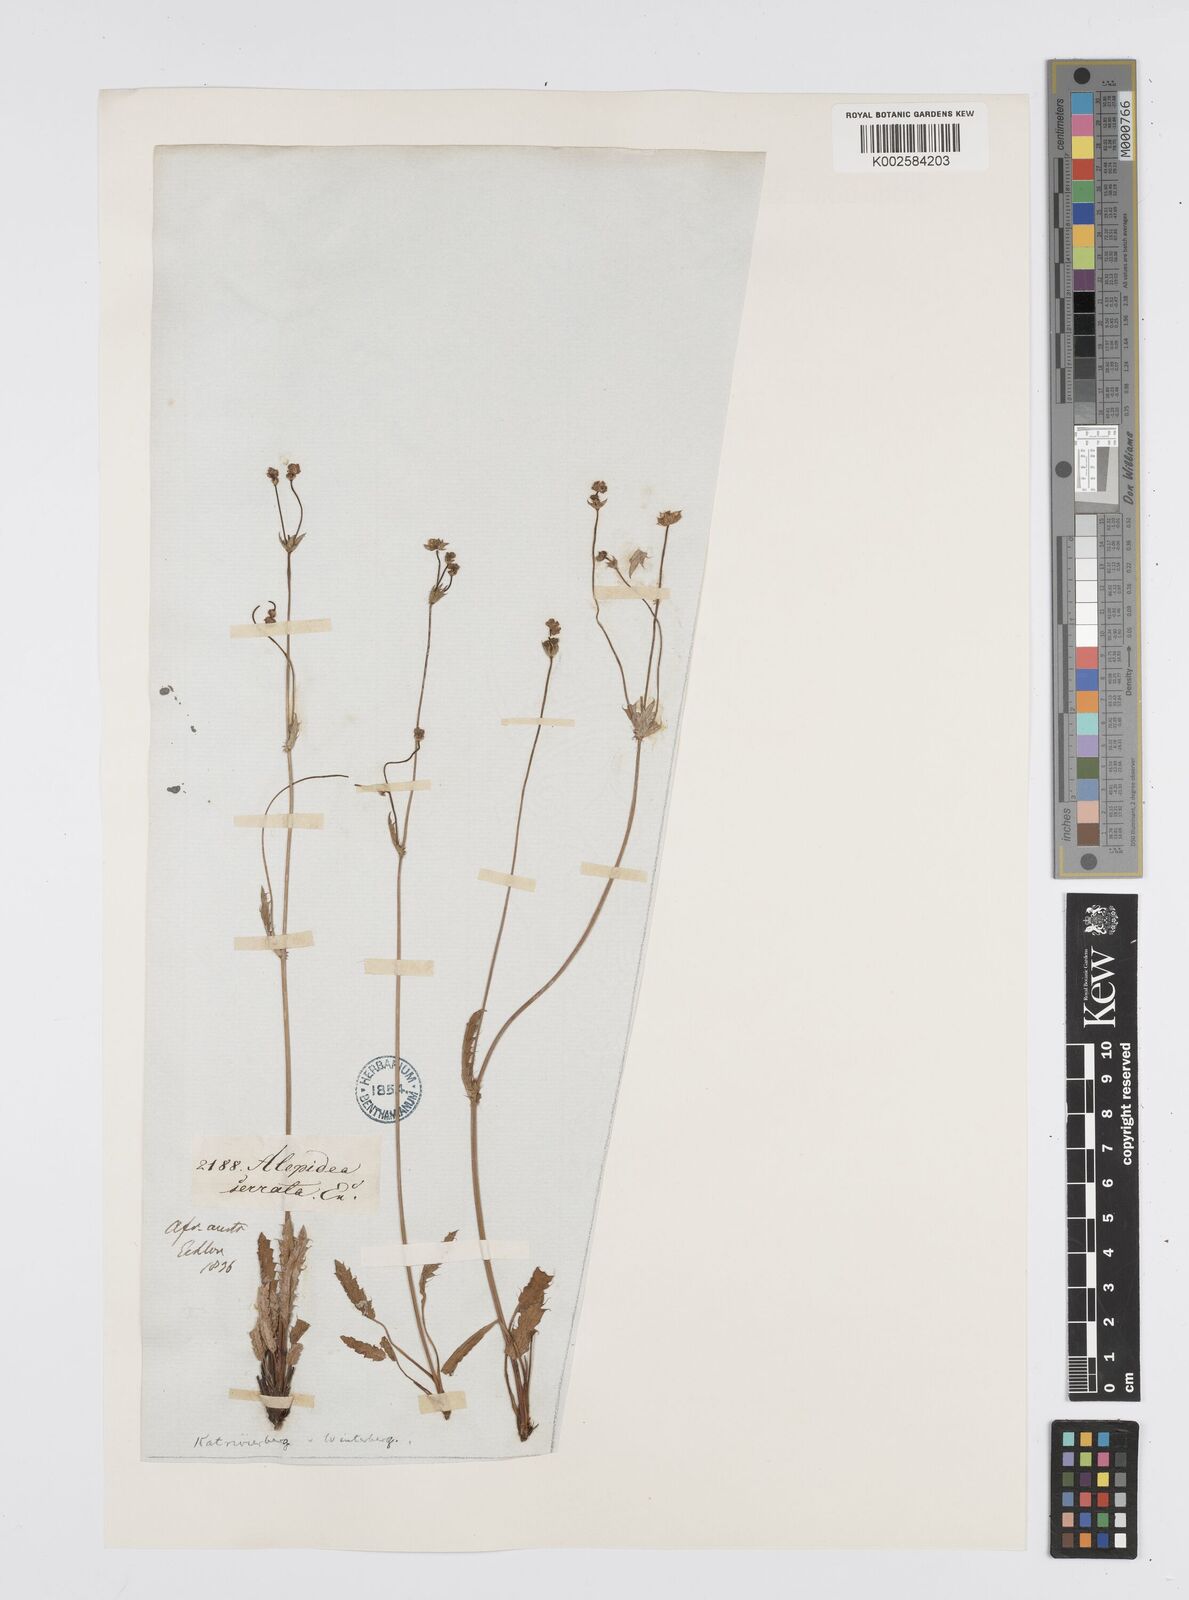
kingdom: Plantae
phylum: Tracheophyta
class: Magnoliopsida
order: Apiales
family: Apiaceae
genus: Alepidea
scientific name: Alepidea serrata
